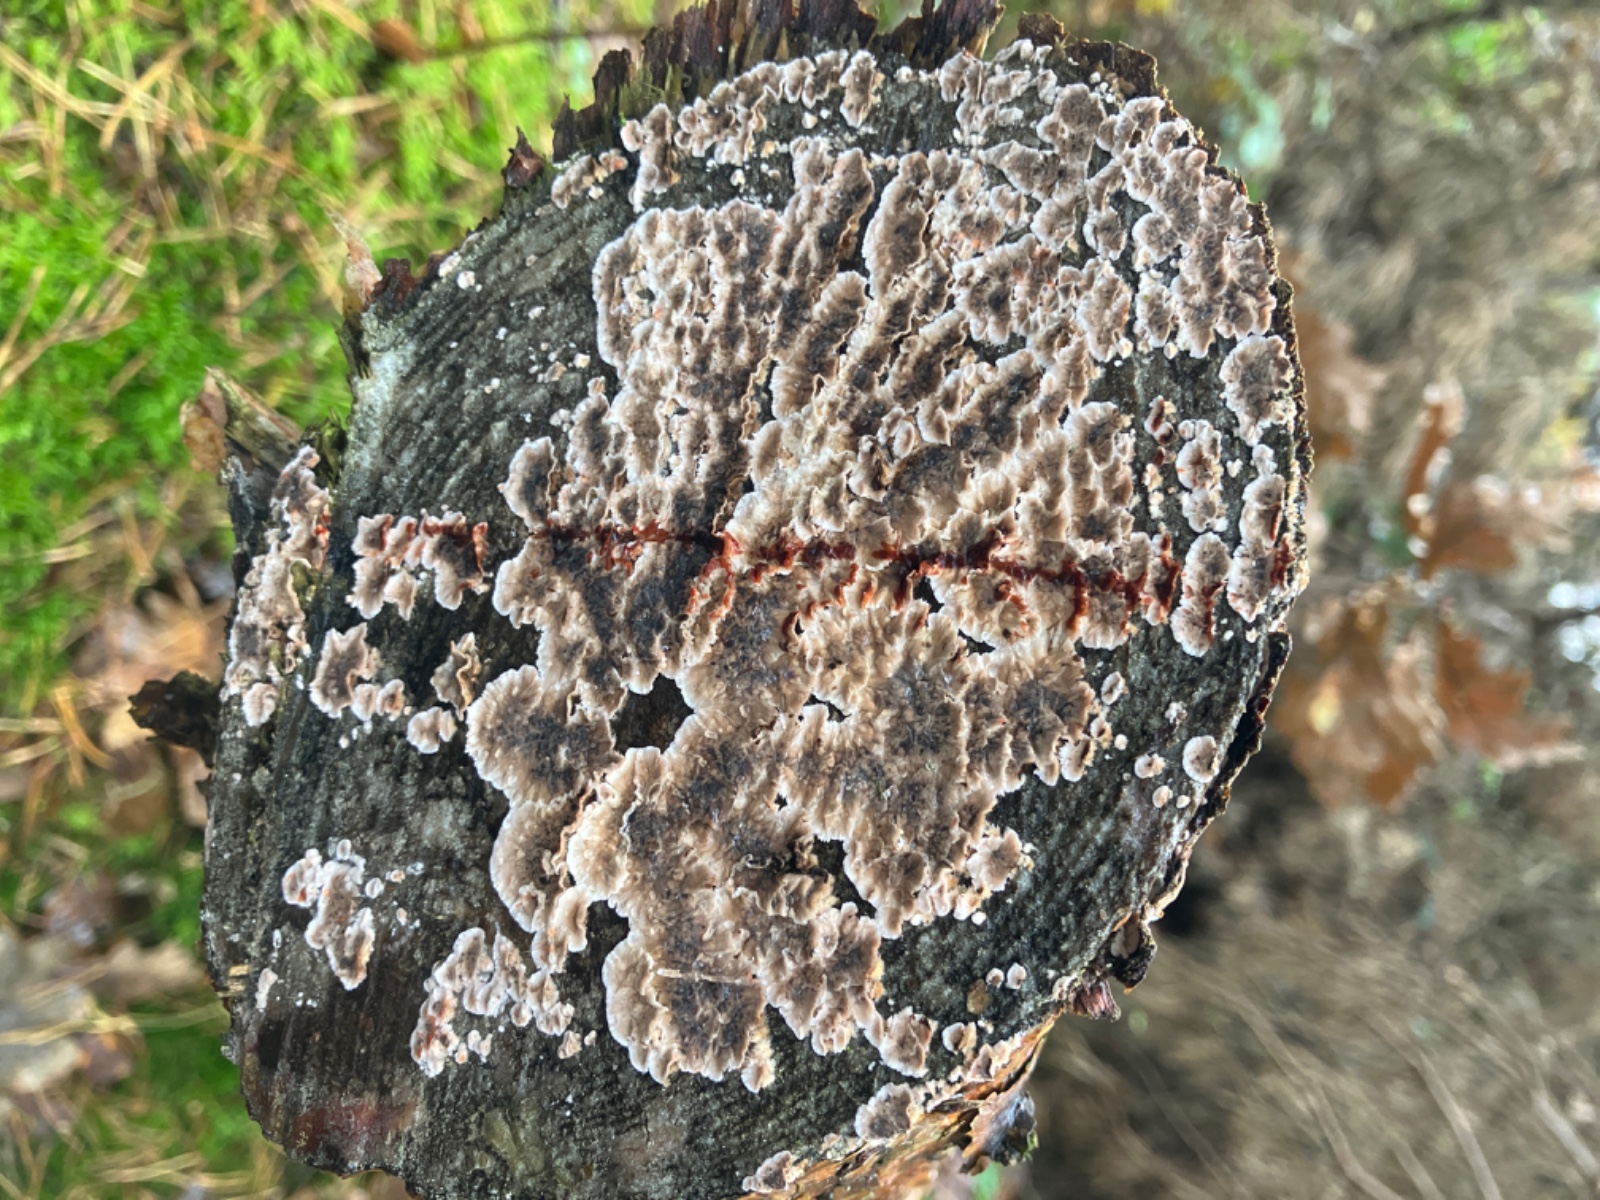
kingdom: Fungi
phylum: Basidiomycota
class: Agaricomycetes
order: Russulales
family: Stereaceae
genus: Stereum
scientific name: Stereum sanguinolentum
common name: blødende lædersvamp
